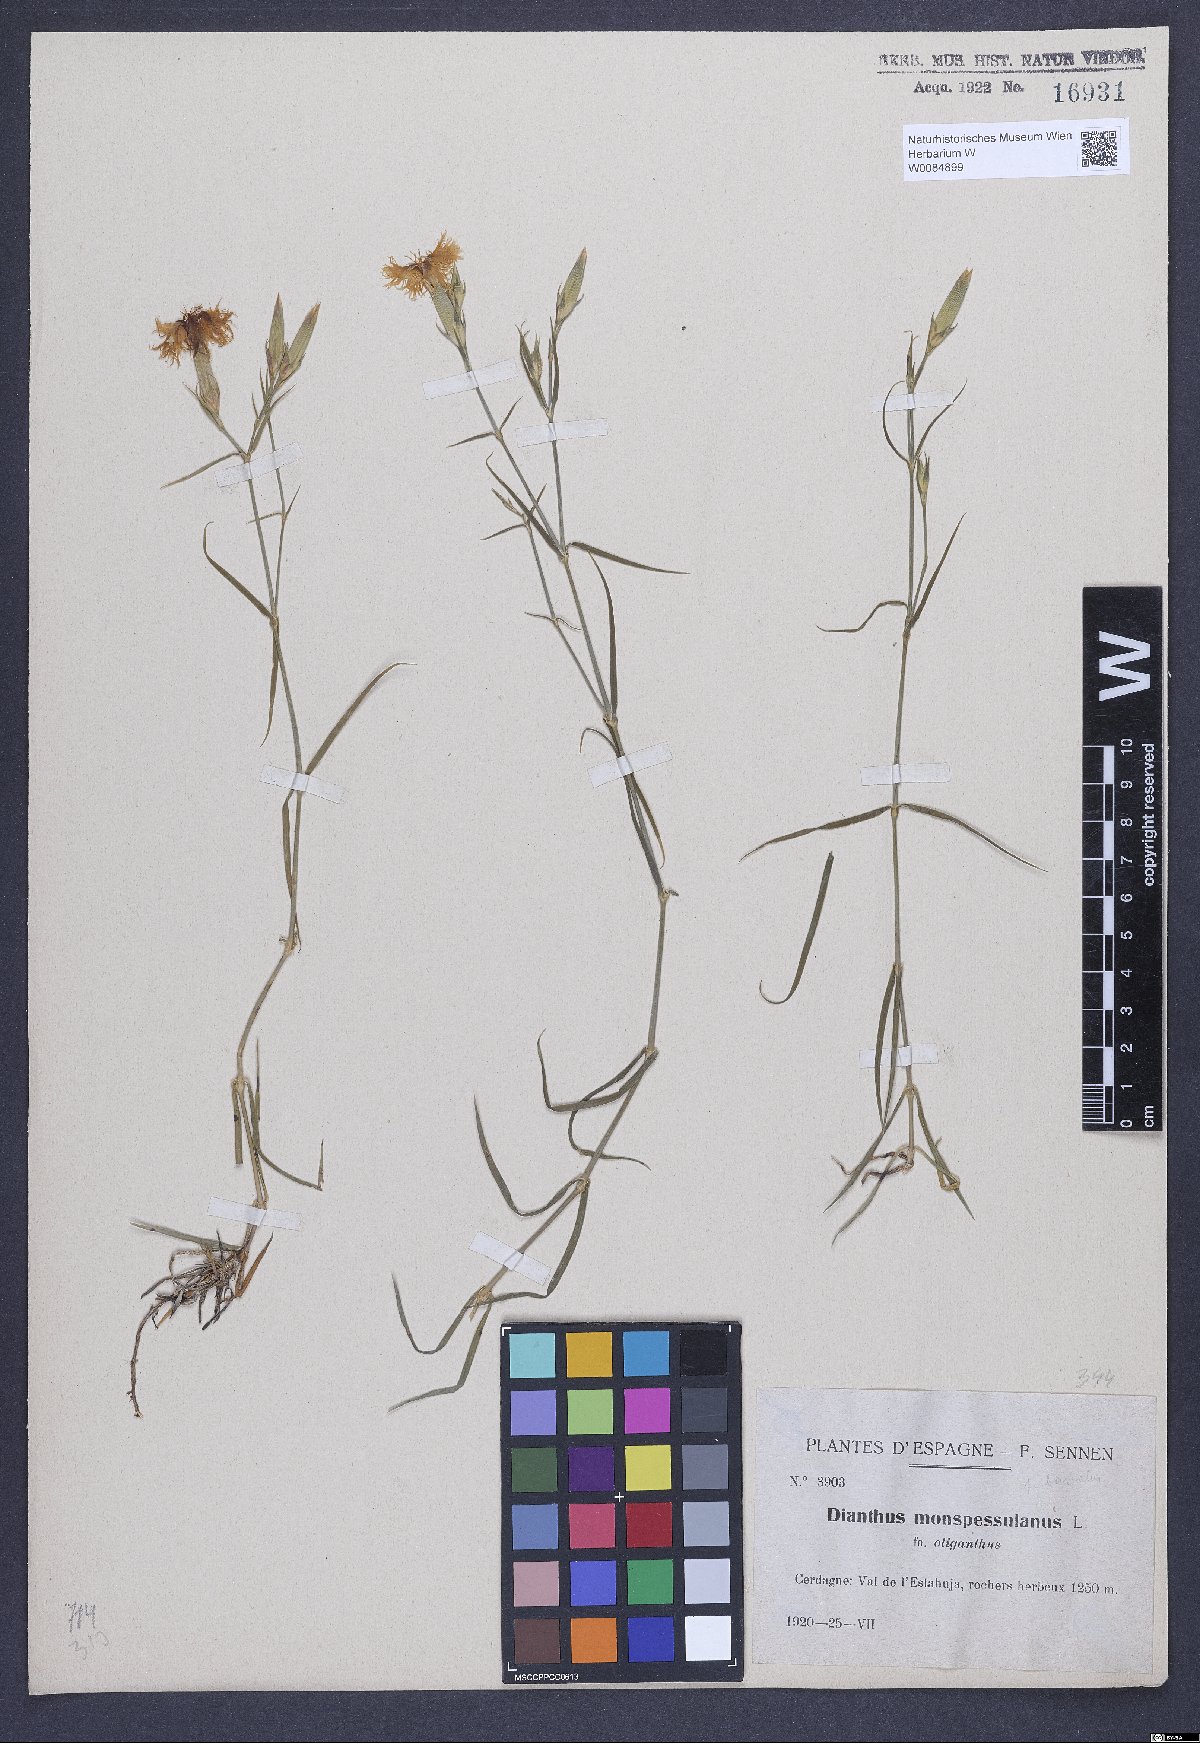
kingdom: Plantae
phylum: Tracheophyta
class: Magnoliopsida
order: Caryophyllales
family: Caryophyllaceae
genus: Dianthus
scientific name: Dianthus hyssopifolius
